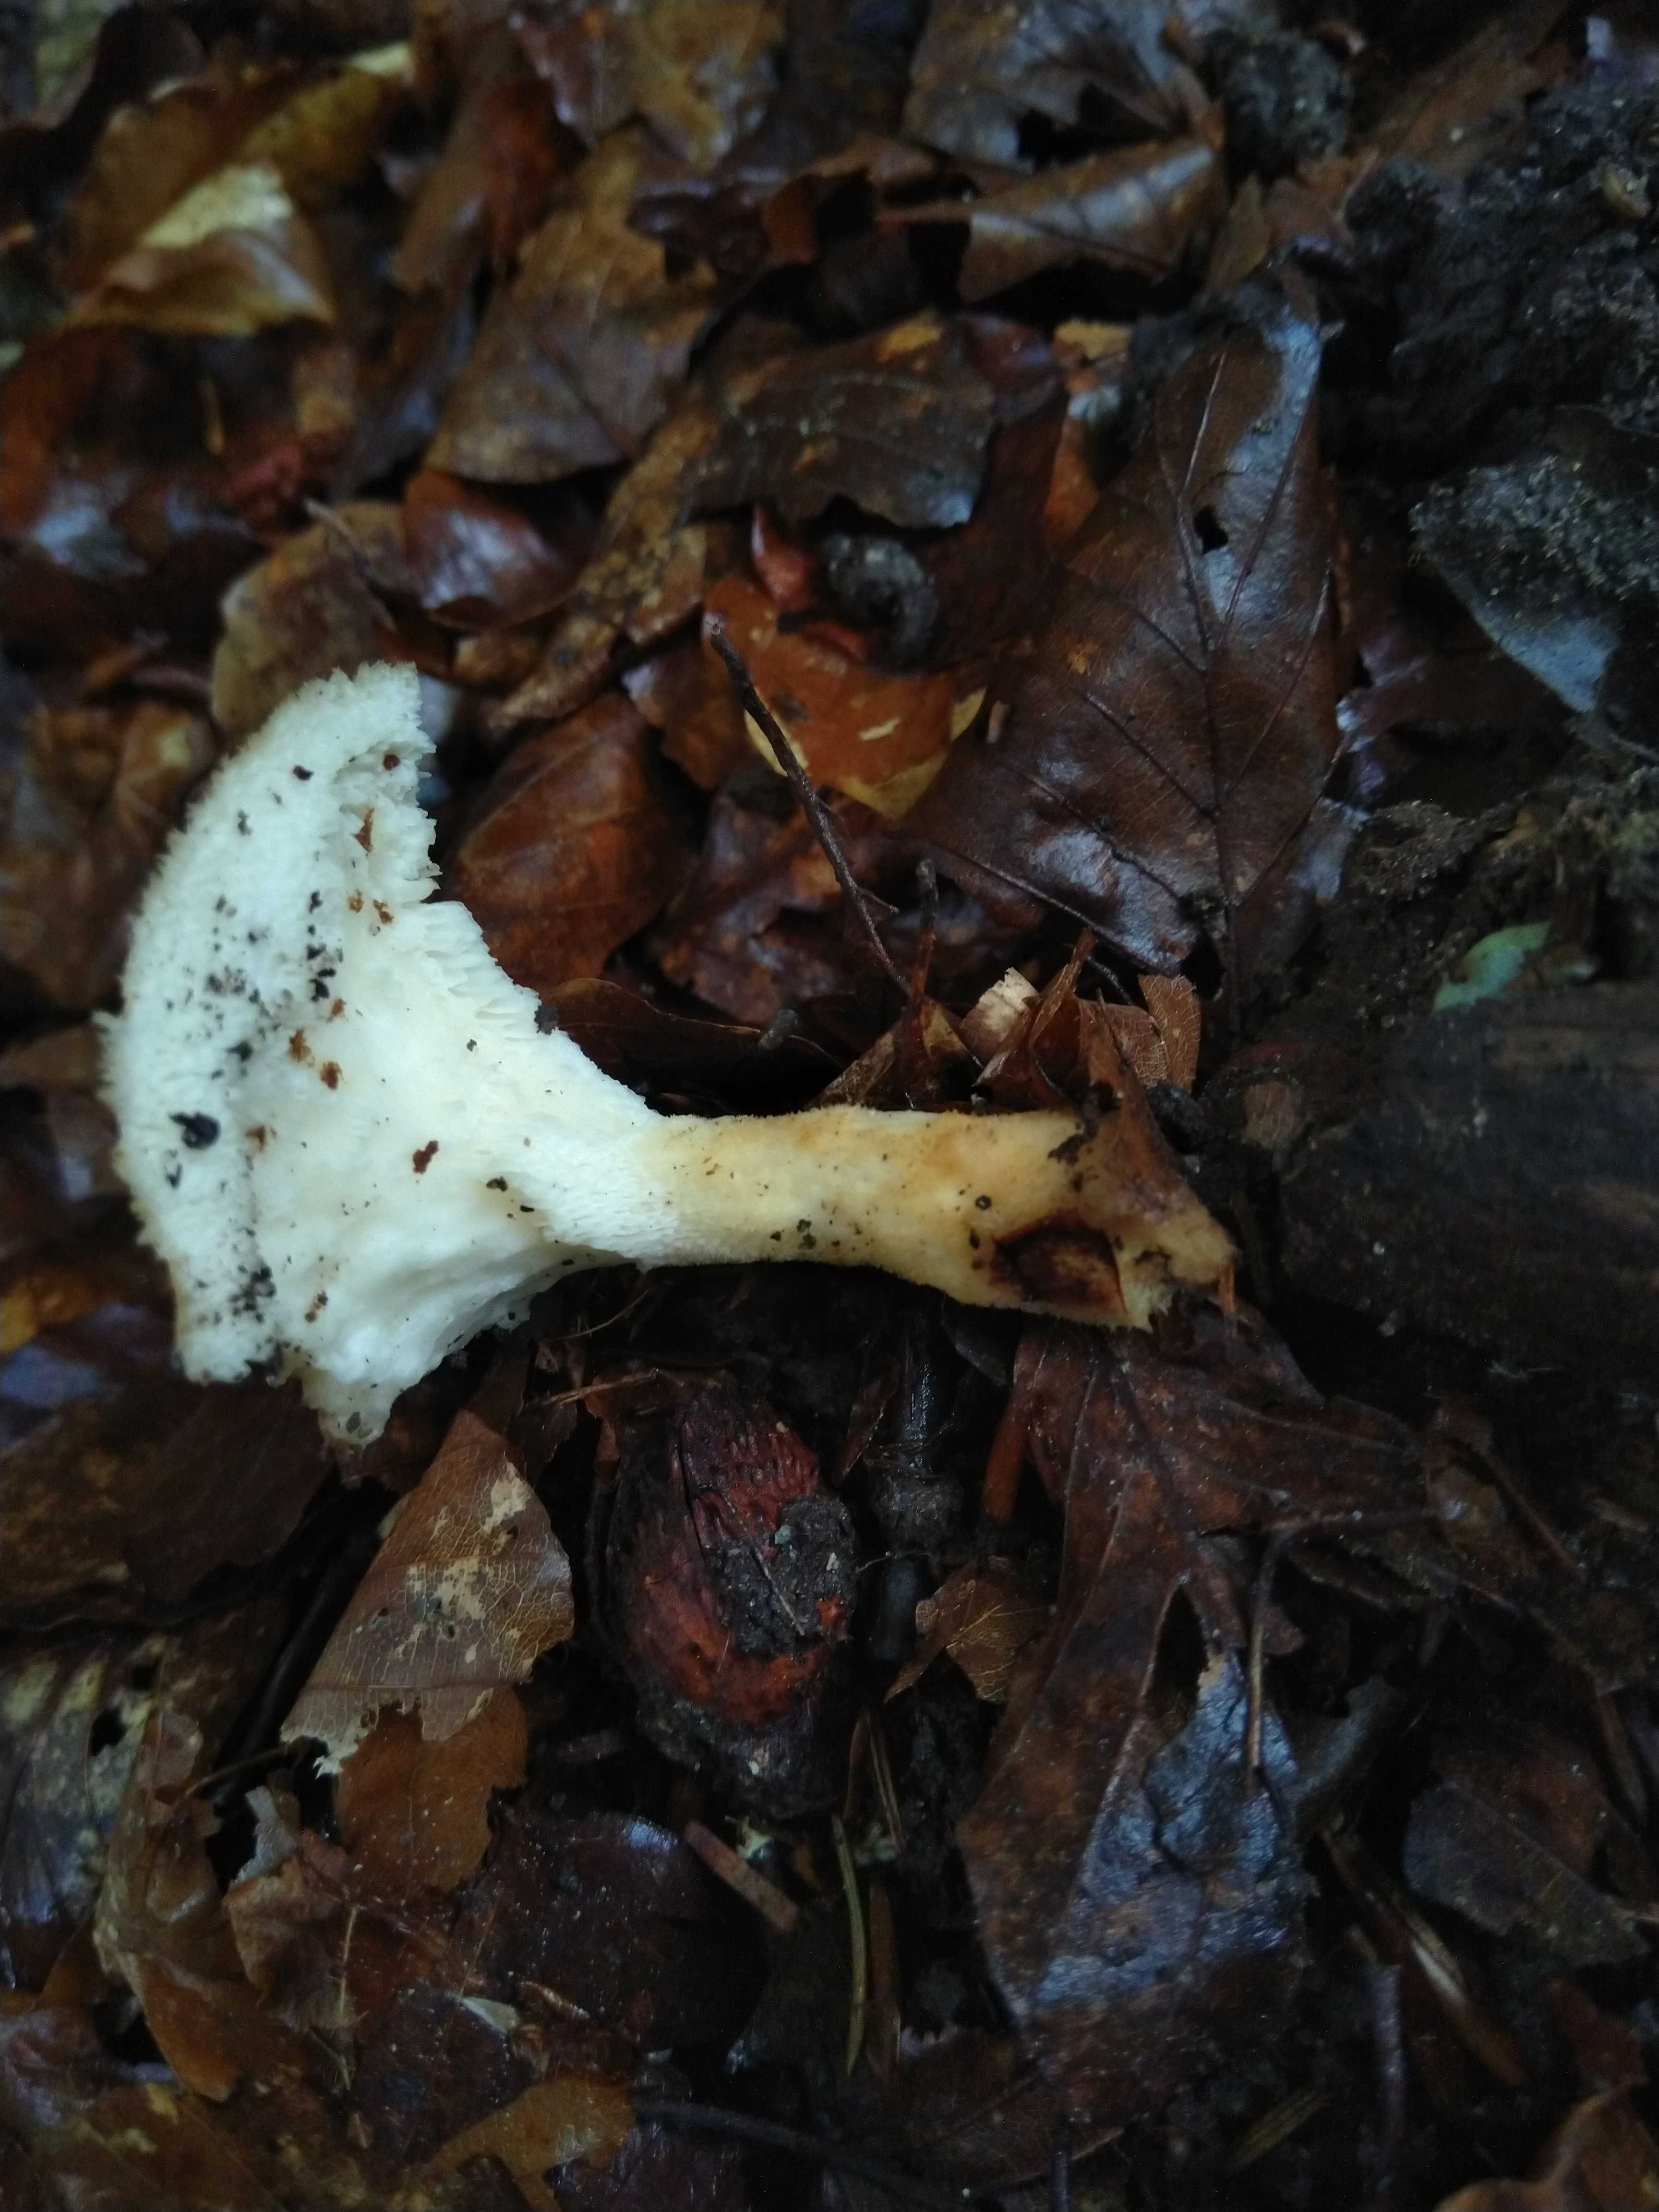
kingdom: Fungi
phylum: Basidiomycota
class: Agaricomycetes
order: Polyporales
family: Polyporaceae
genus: Polyporus
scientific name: Polyporus tuberaster
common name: knoldet stilkporesvamp
